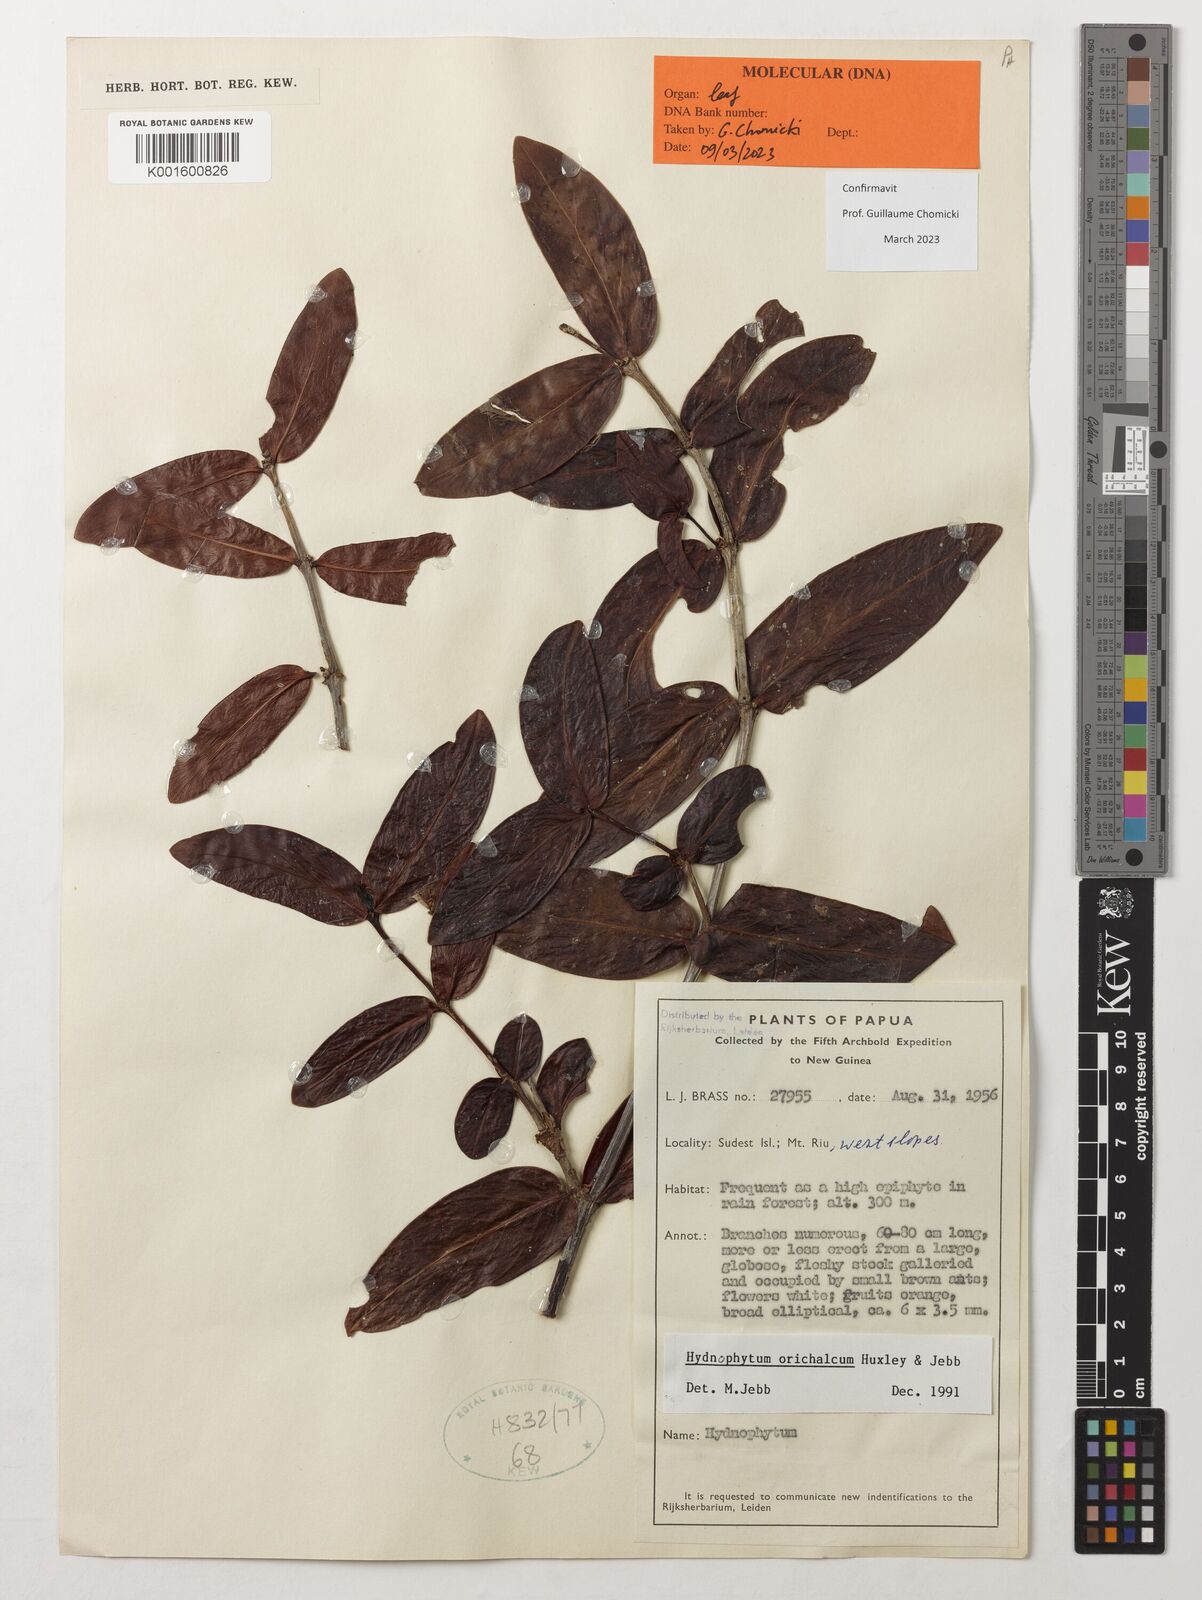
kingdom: Plantae
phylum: Tracheophyta
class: Magnoliopsida
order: Gentianales
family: Rubiaceae
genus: Hydnophytum
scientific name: Hydnophytum orichalcum
